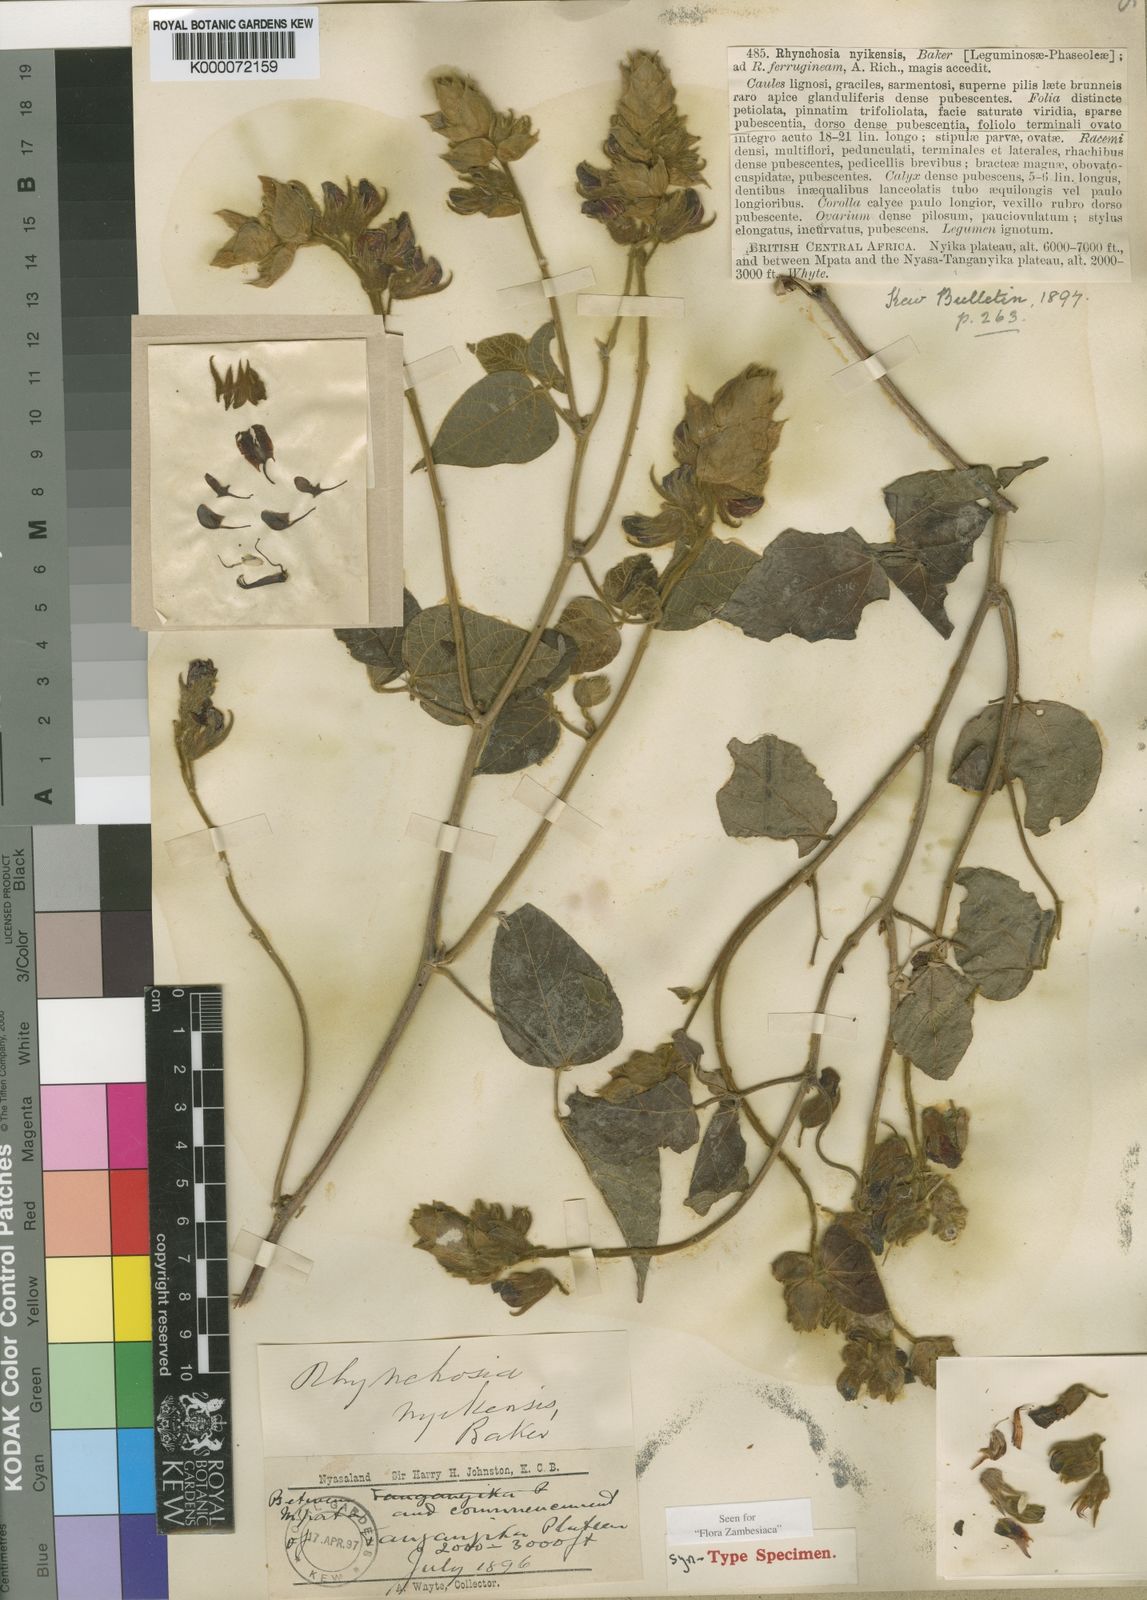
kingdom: Plantae
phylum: Tracheophyta
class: Magnoliopsida
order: Fabales
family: Fabaceae
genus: Rhynchosia
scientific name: Rhynchosia nyikensis
